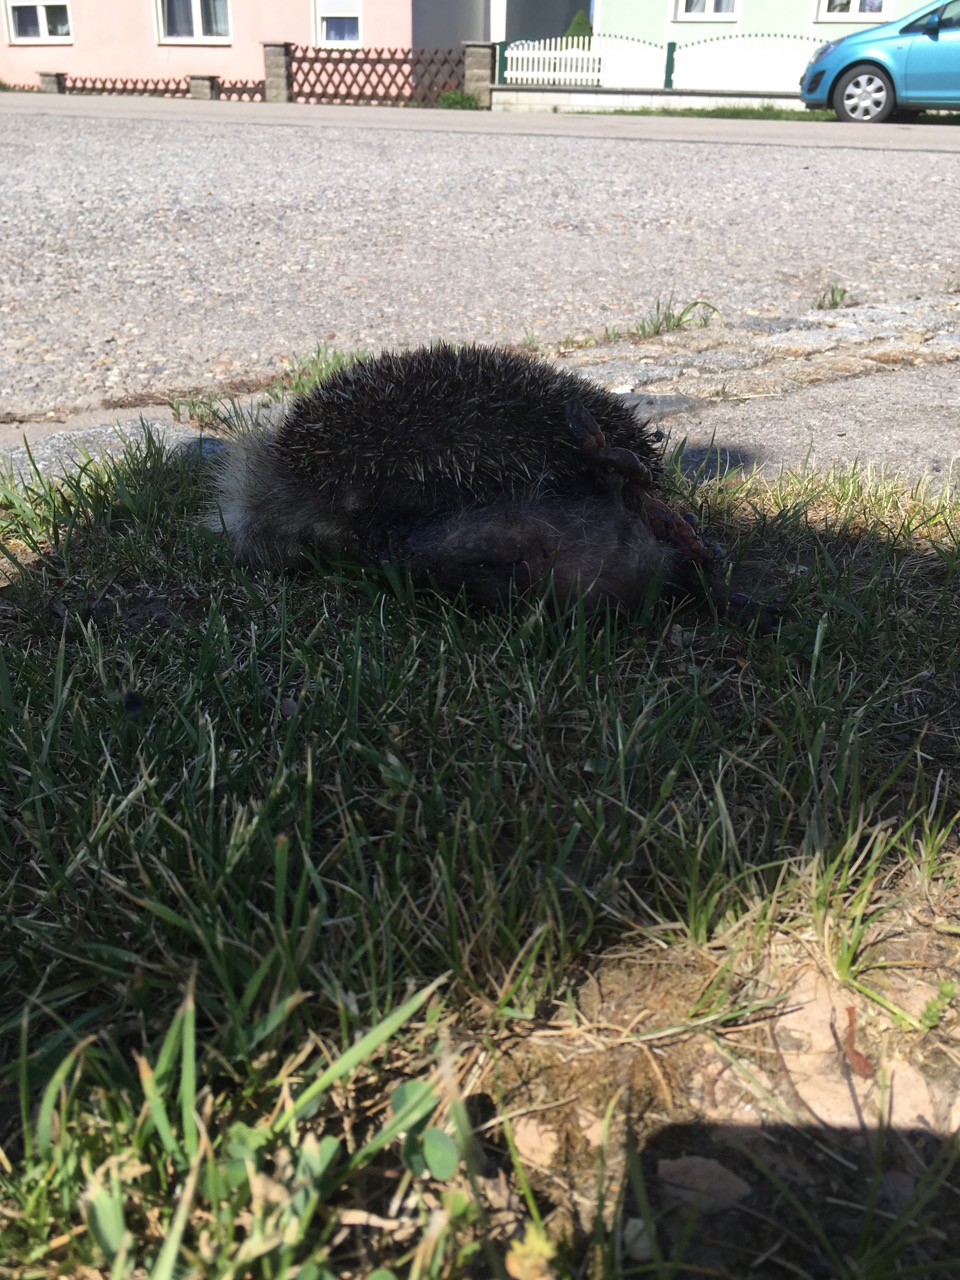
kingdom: Animalia
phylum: Chordata
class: Mammalia
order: Erinaceomorpha
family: Erinaceidae
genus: Erinaceus
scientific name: Erinaceus
